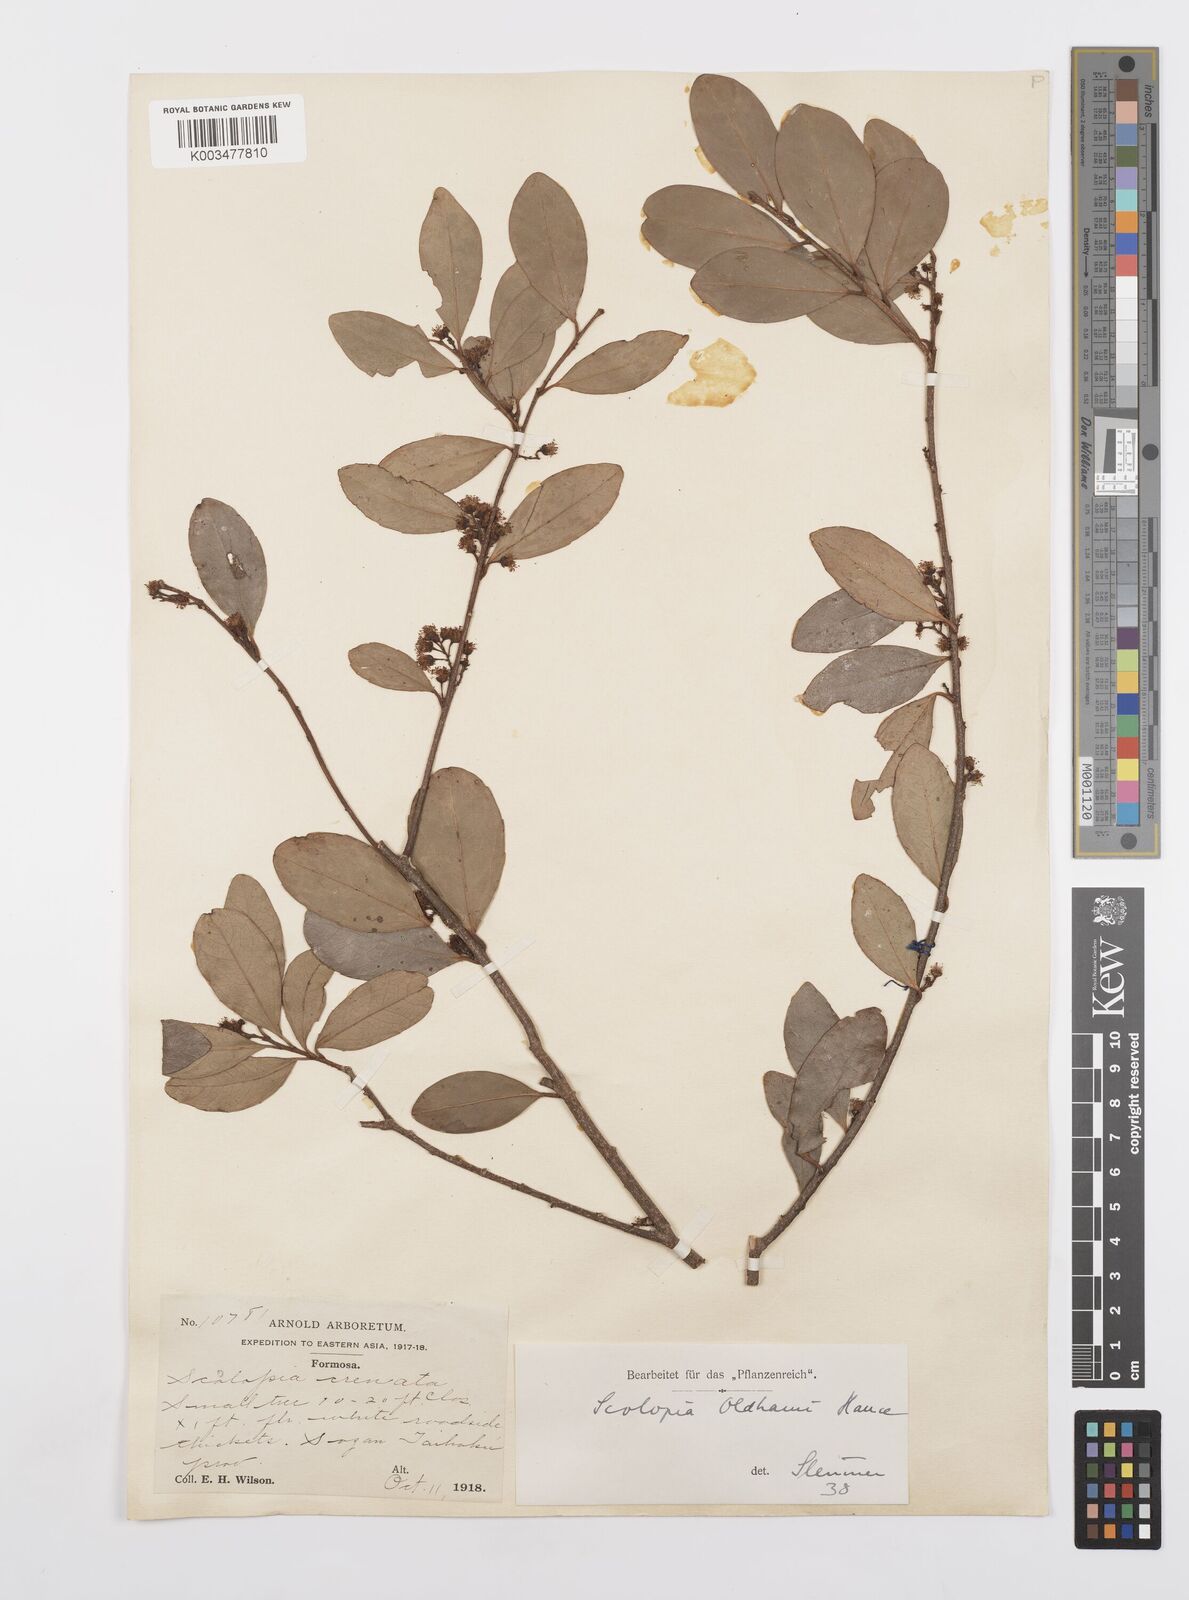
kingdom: Plantae
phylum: Tracheophyta
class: Magnoliopsida
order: Malpighiales
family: Salicaceae
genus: Scolopia
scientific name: Scolopia oldhamii
